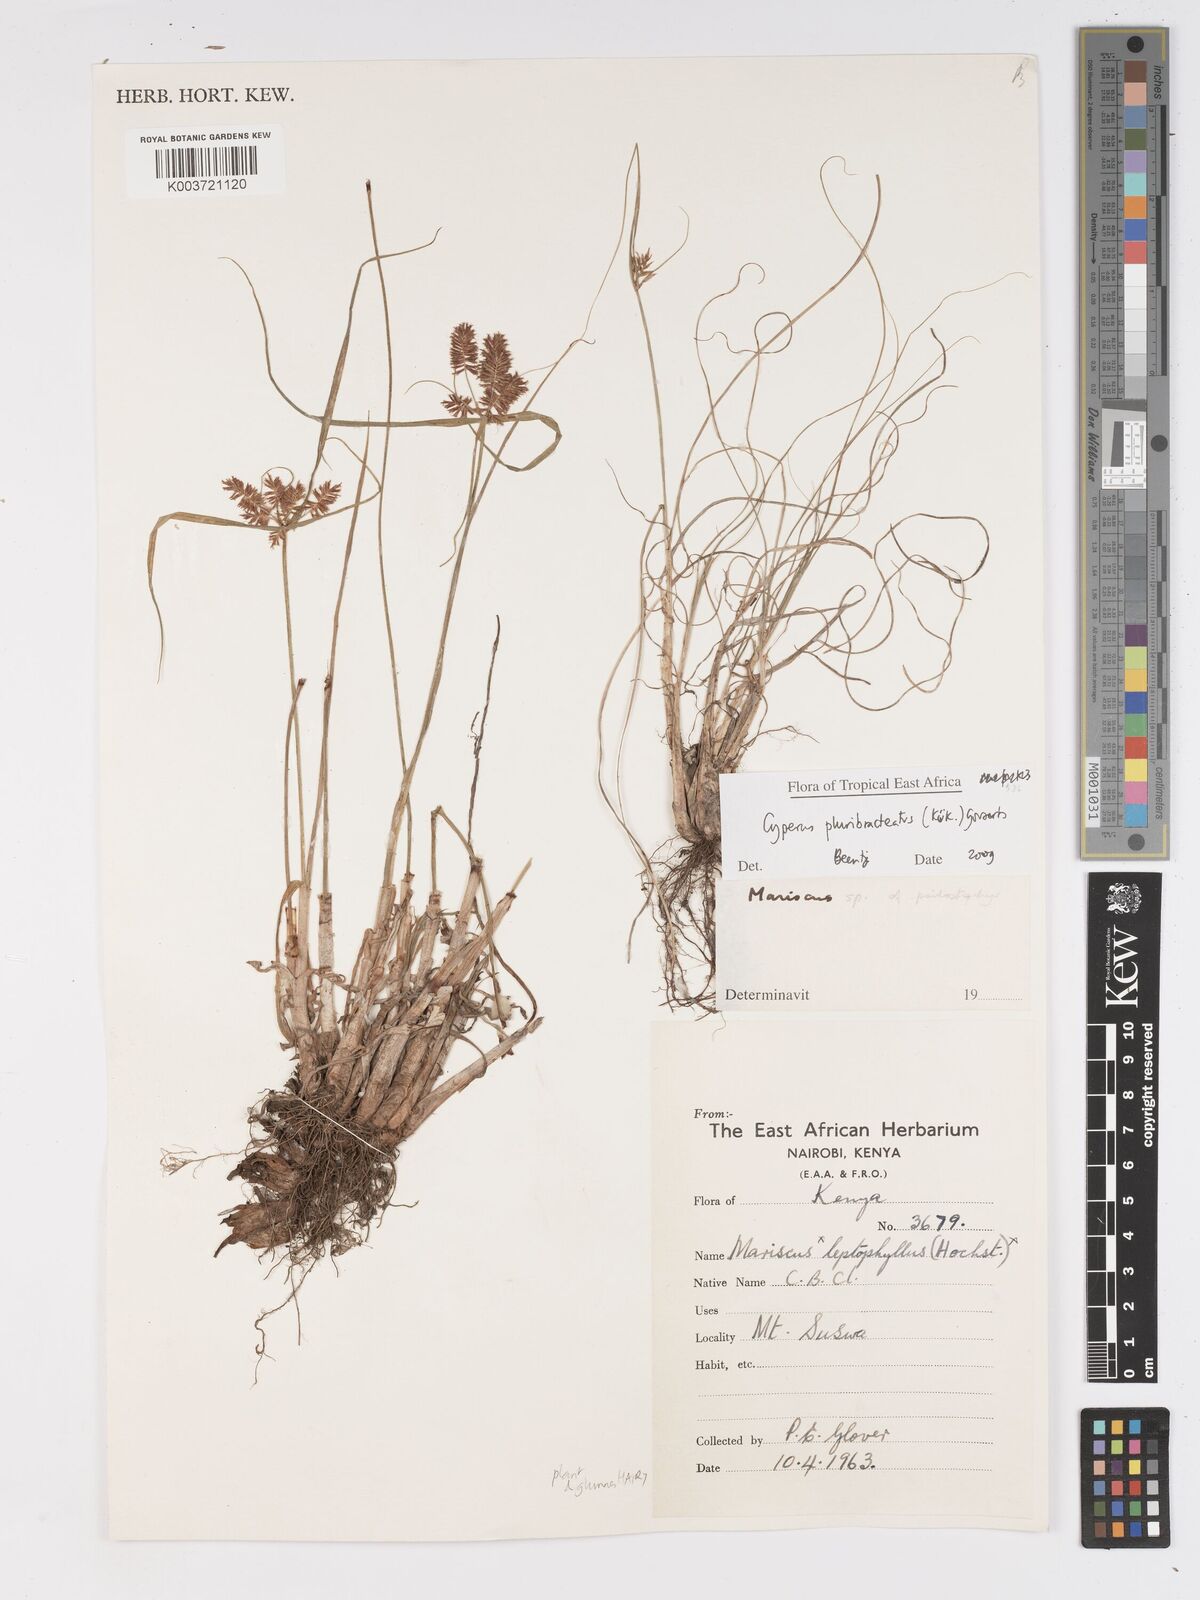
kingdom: Plantae
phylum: Tracheophyta
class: Liliopsida
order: Poales
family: Cyperaceae
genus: Cyperus
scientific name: Cyperus trigonellus
